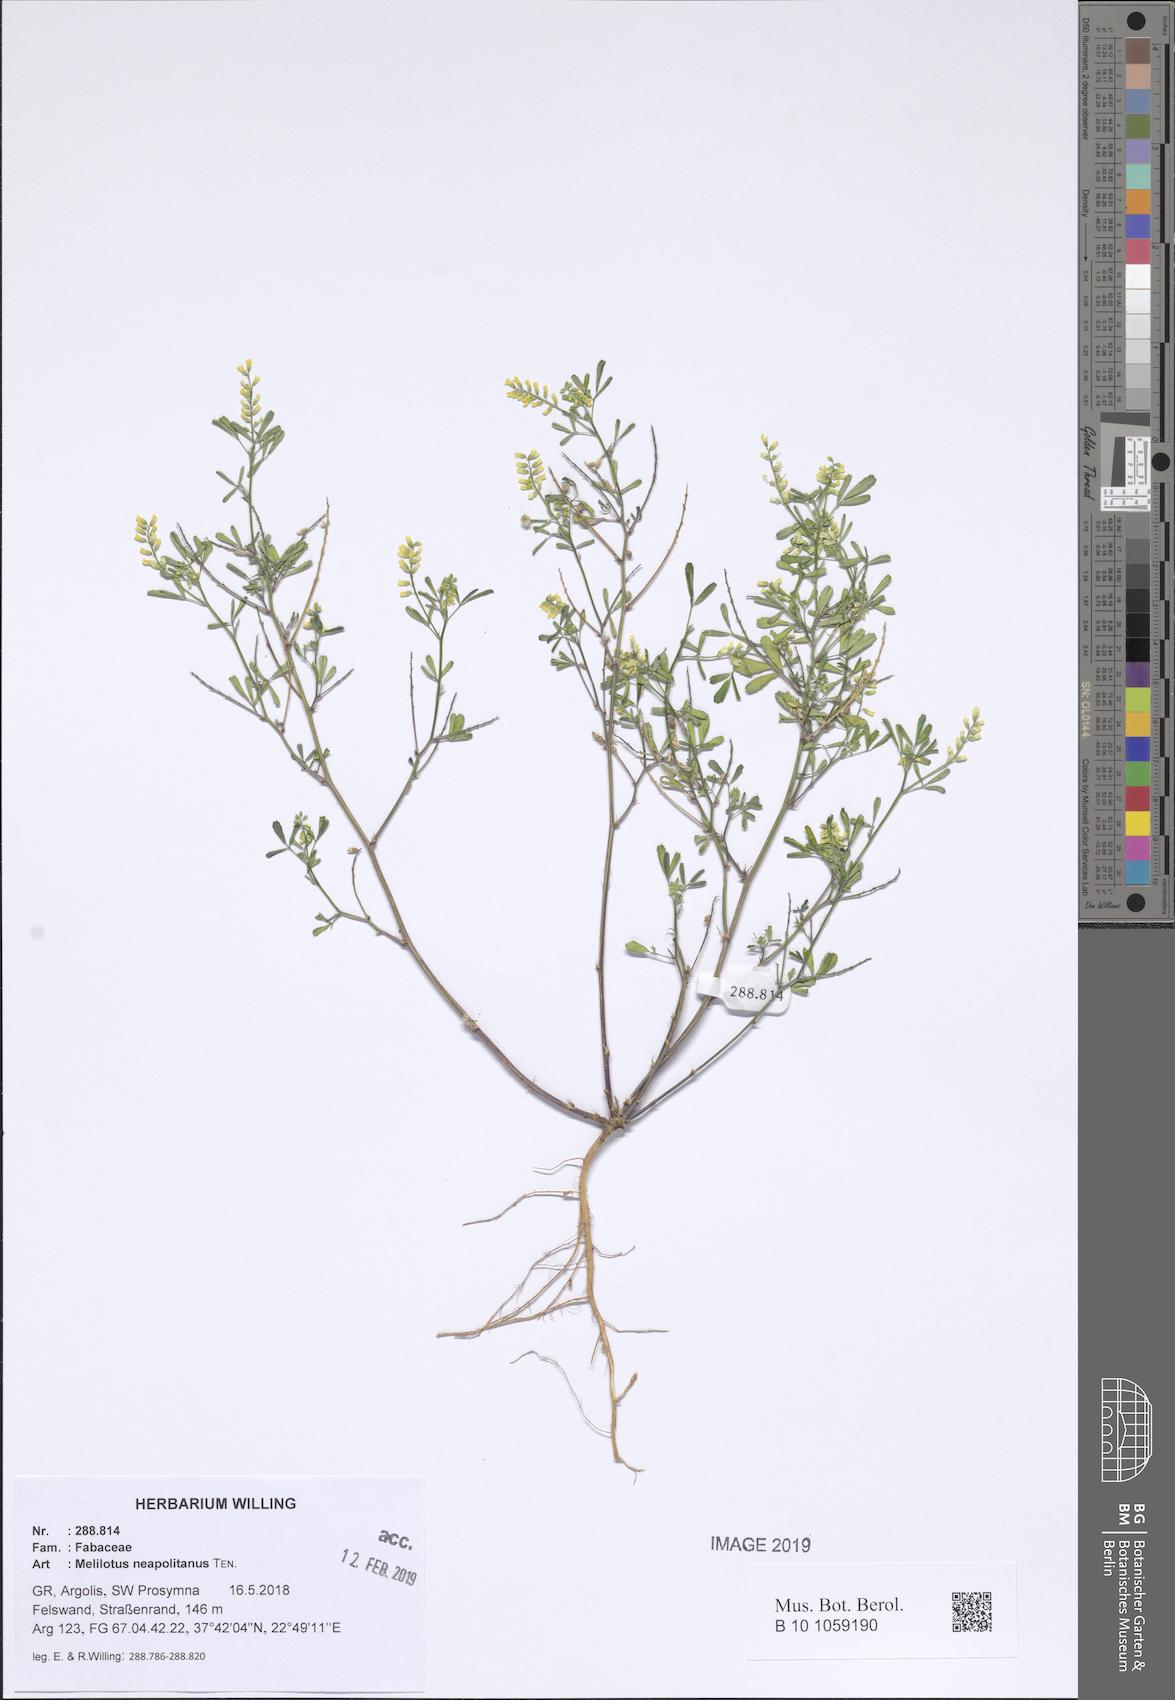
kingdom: Plantae
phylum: Tracheophyta
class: Magnoliopsida
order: Fabales
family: Fabaceae
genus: Melilotus
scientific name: Melilotus neapolitanus
